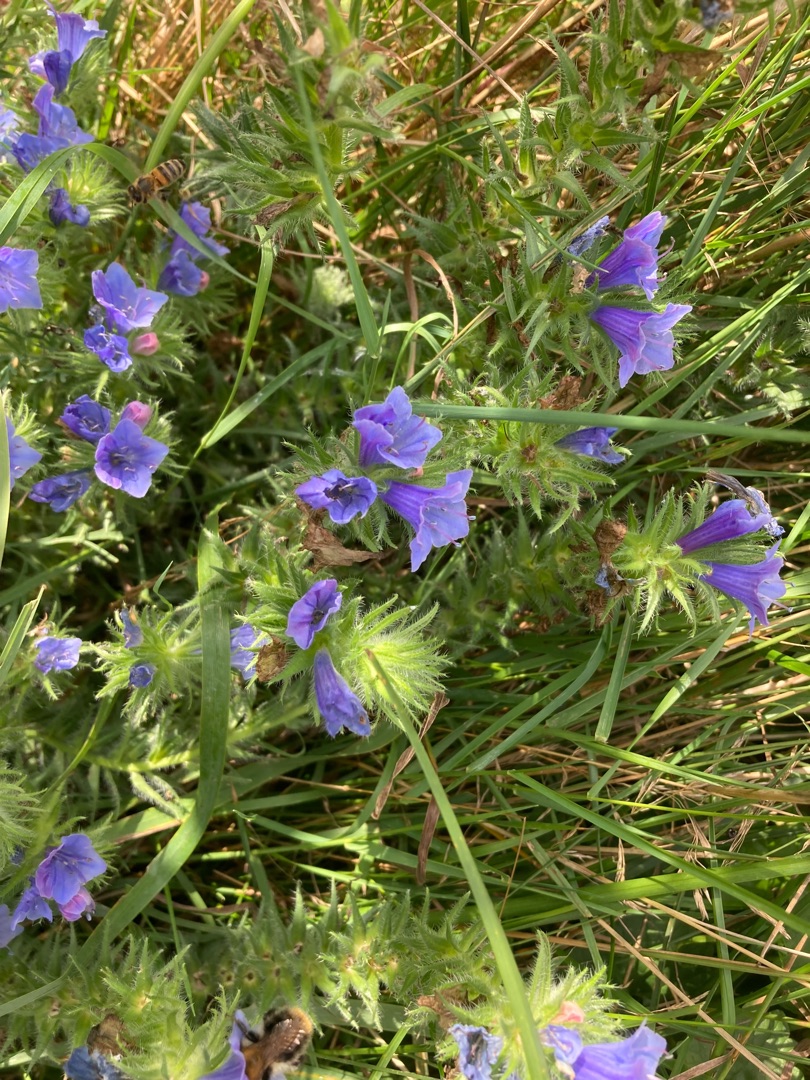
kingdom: Plantae
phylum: Tracheophyta
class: Magnoliopsida
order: Boraginales
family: Boraginaceae
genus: Echium
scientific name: Echium vulgare
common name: Slangehoved
